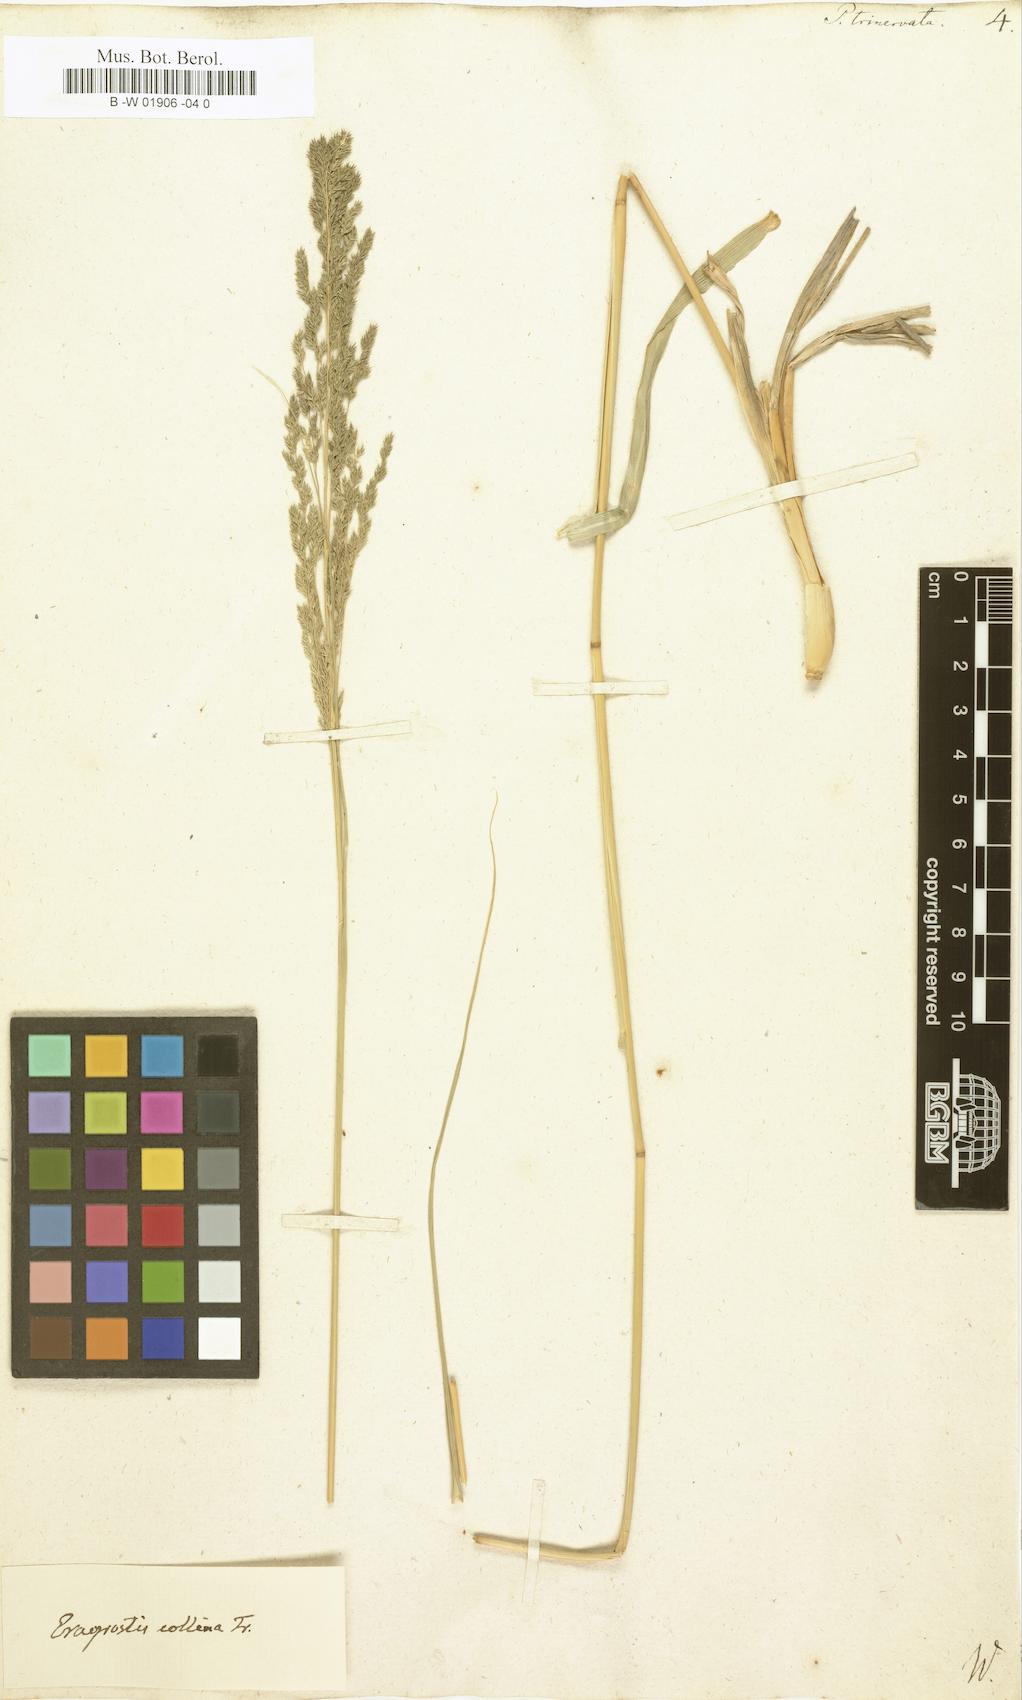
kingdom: Plantae
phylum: Tracheophyta
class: Liliopsida
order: Poales
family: Poaceae
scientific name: Poaceae
